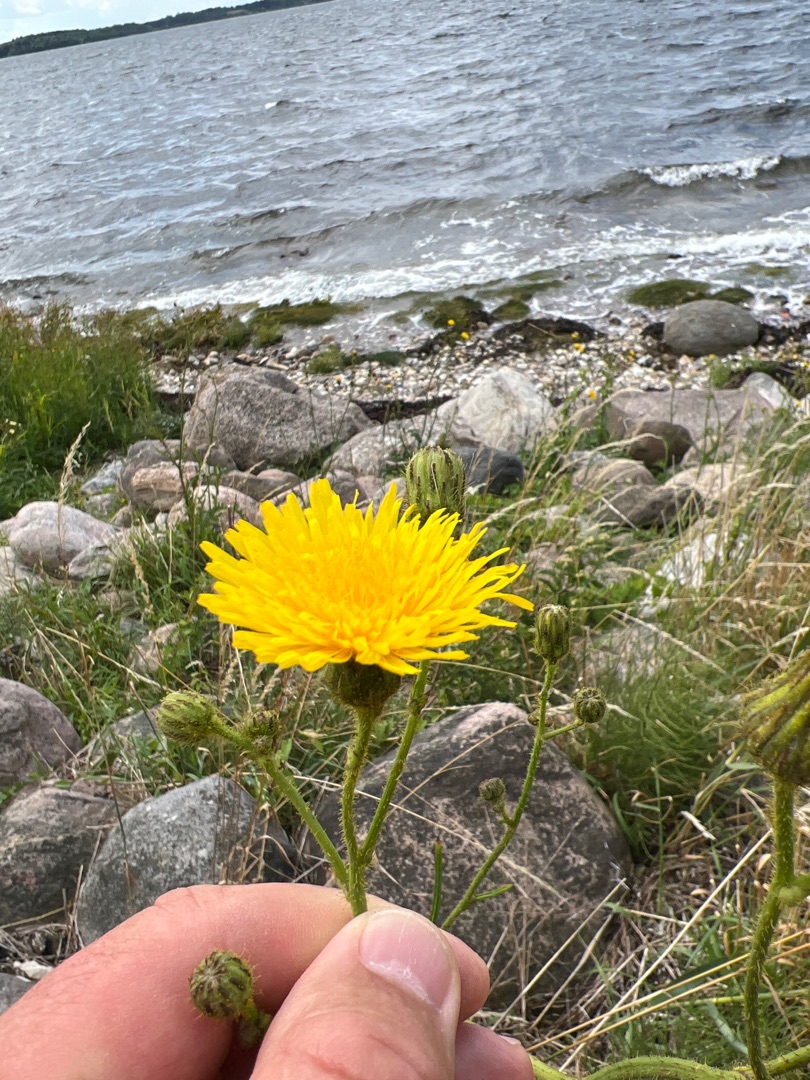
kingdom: Plantae
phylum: Tracheophyta
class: Magnoliopsida
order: Asterales
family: Asteraceae
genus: Sonchus
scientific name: Sonchus arvensis
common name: Ager-svinemælk
